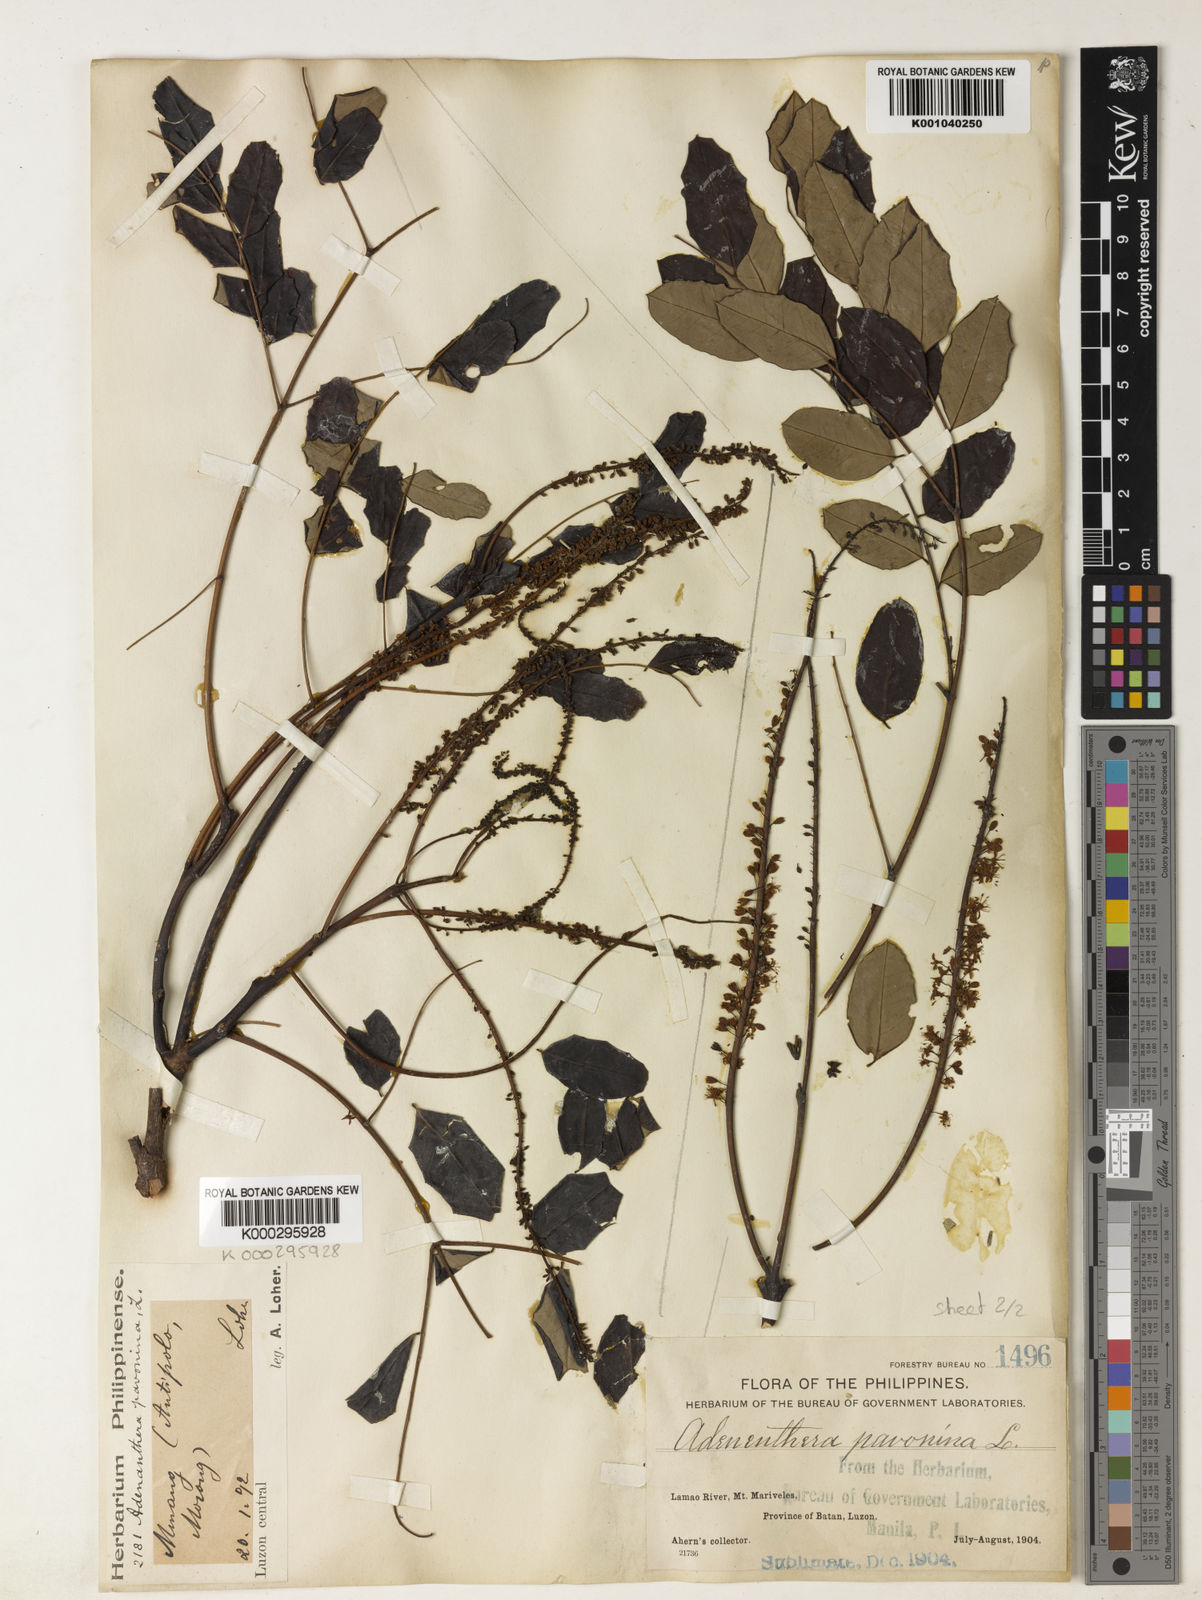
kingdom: Plantae
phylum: Tracheophyta
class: Magnoliopsida
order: Fabales
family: Fabaceae
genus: Adenanthera
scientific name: Adenanthera pavonina
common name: Red beadtree
